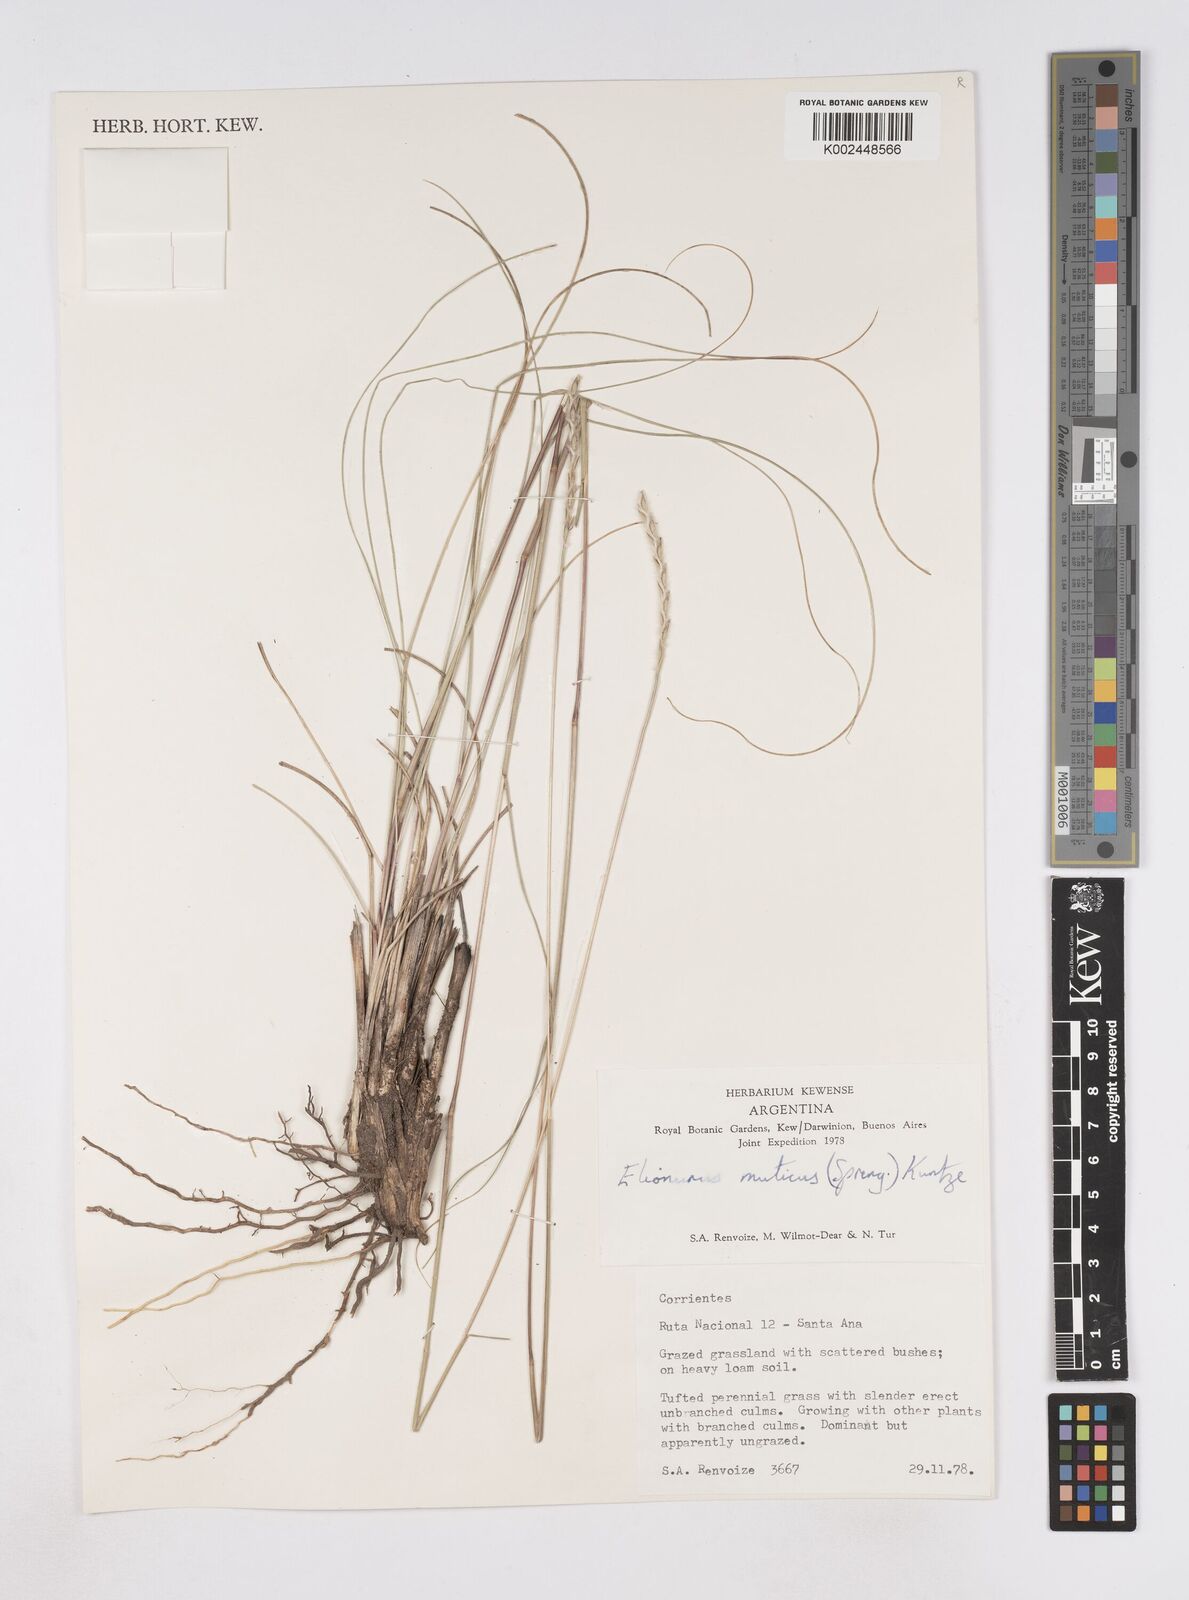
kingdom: Plantae
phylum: Tracheophyta
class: Liliopsida
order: Poales
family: Poaceae
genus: Elionurus
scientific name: Elionurus muticus
